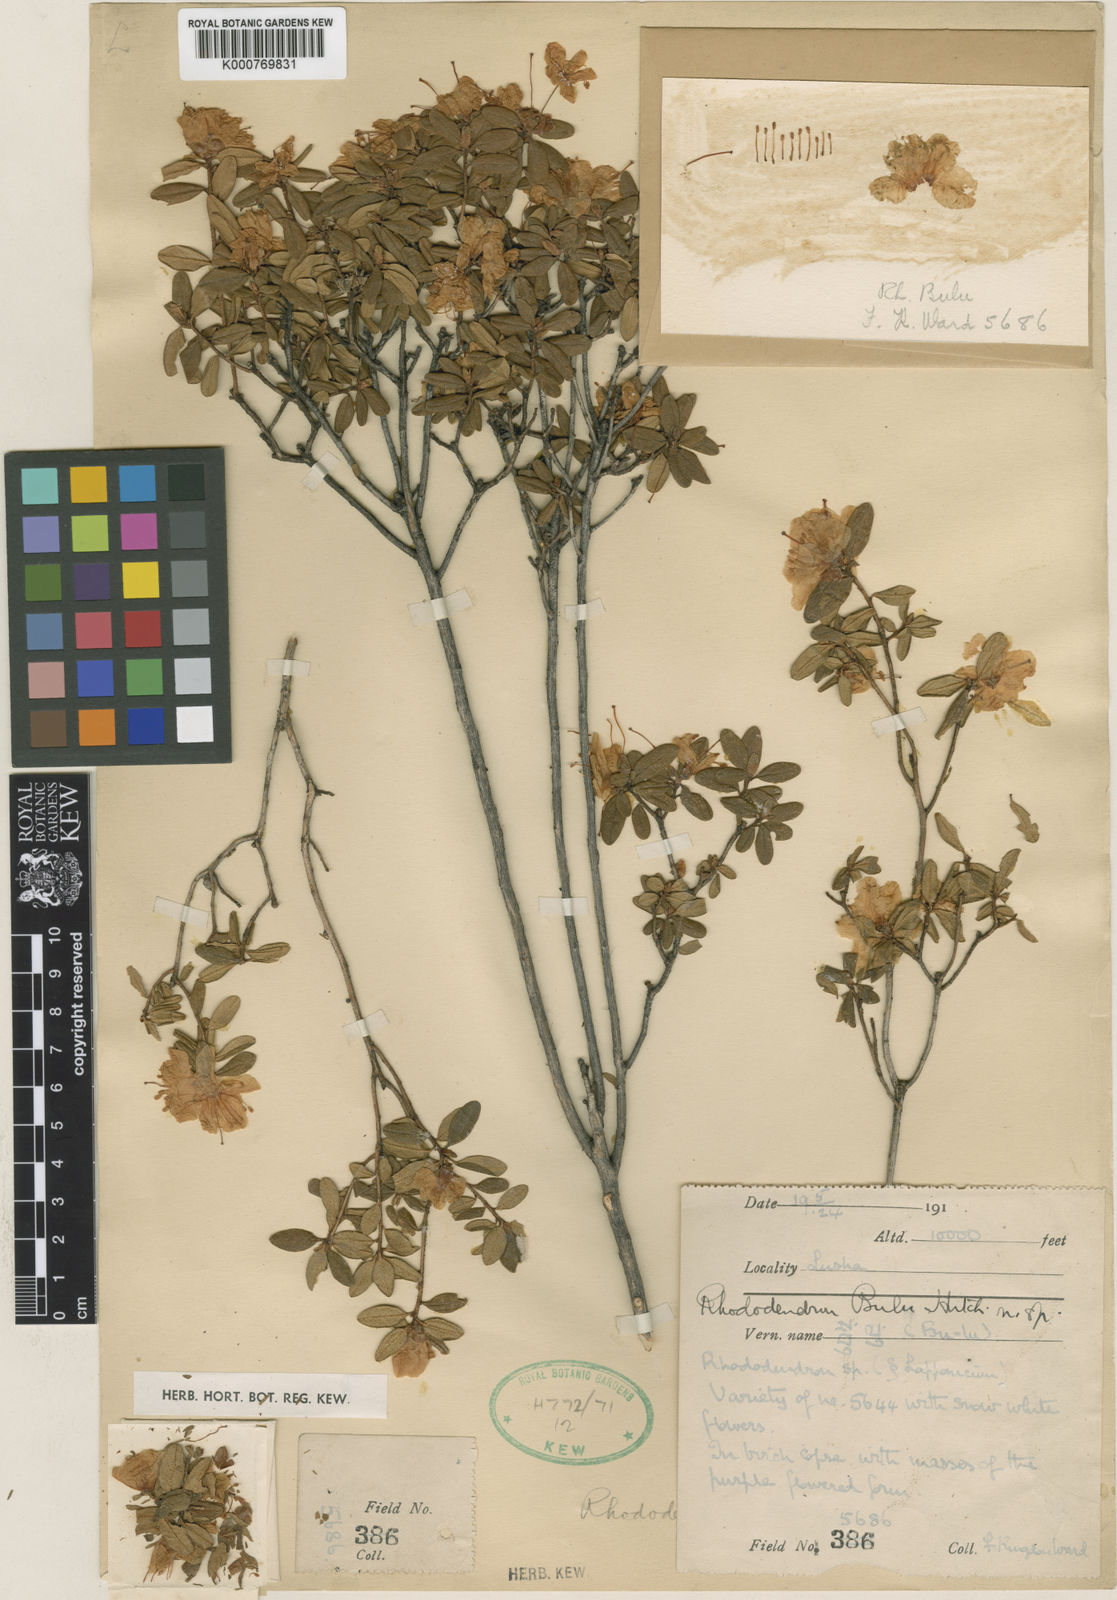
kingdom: Plantae
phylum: Tracheophyta
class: Magnoliopsida
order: Ericales
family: Ericaceae
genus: Rhododendron
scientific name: Rhododendron bulu
